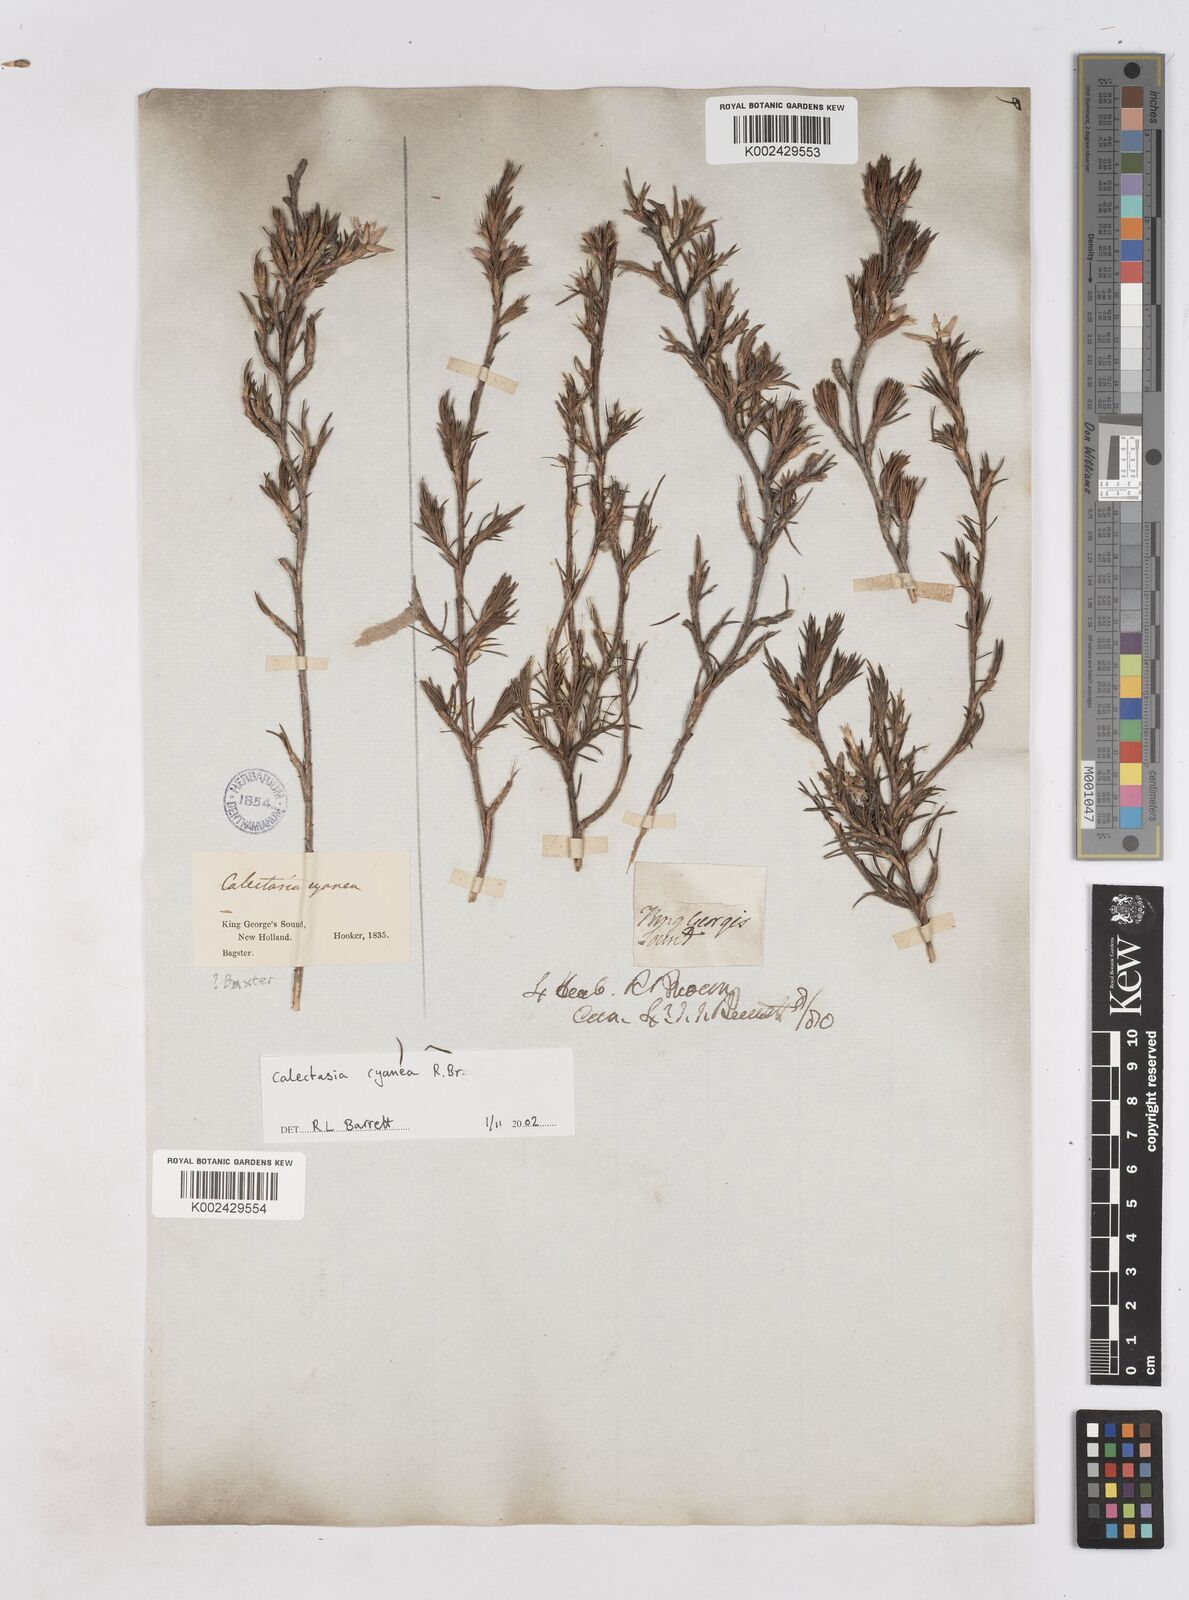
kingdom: Plantae
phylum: Tracheophyta
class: Liliopsida
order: Arecales
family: Dasypogonaceae
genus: Calectasia
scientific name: Calectasia cyanea
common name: Blue tinsel-lily
